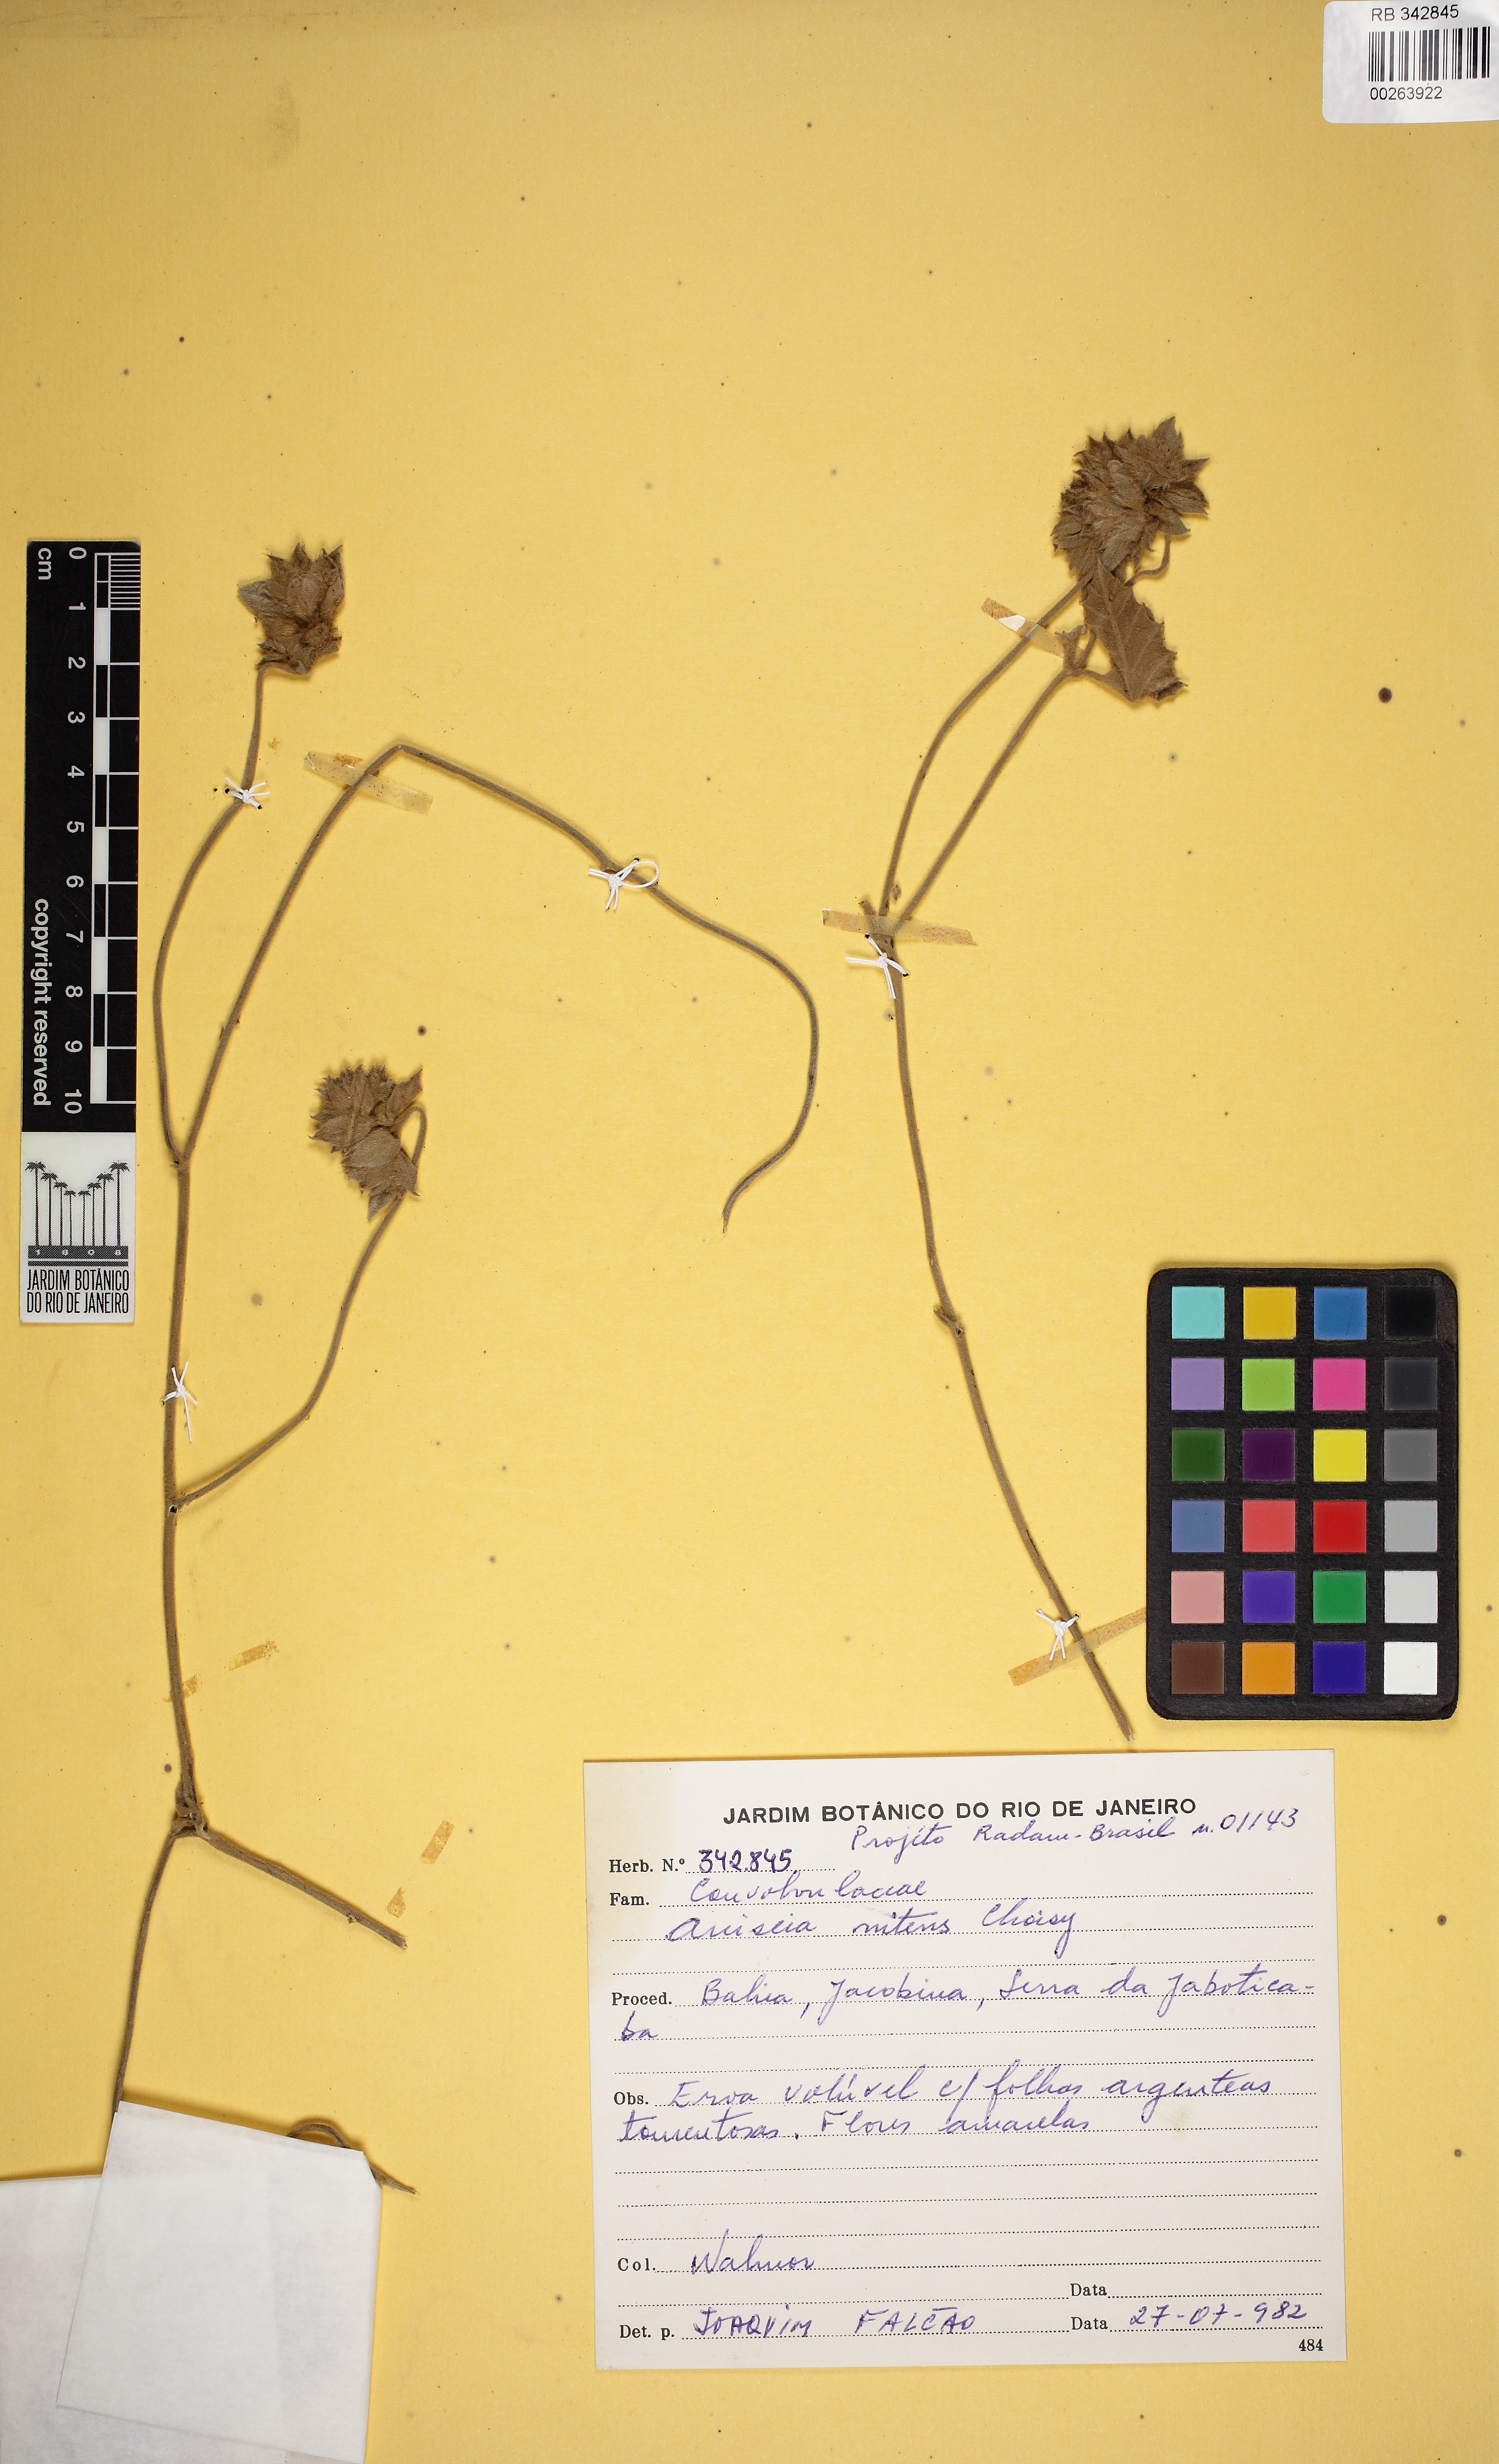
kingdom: Plantae
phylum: Tracheophyta
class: Magnoliopsida
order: Solanales
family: Convolvulaceae
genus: Daustinia
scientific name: Daustinia montana
